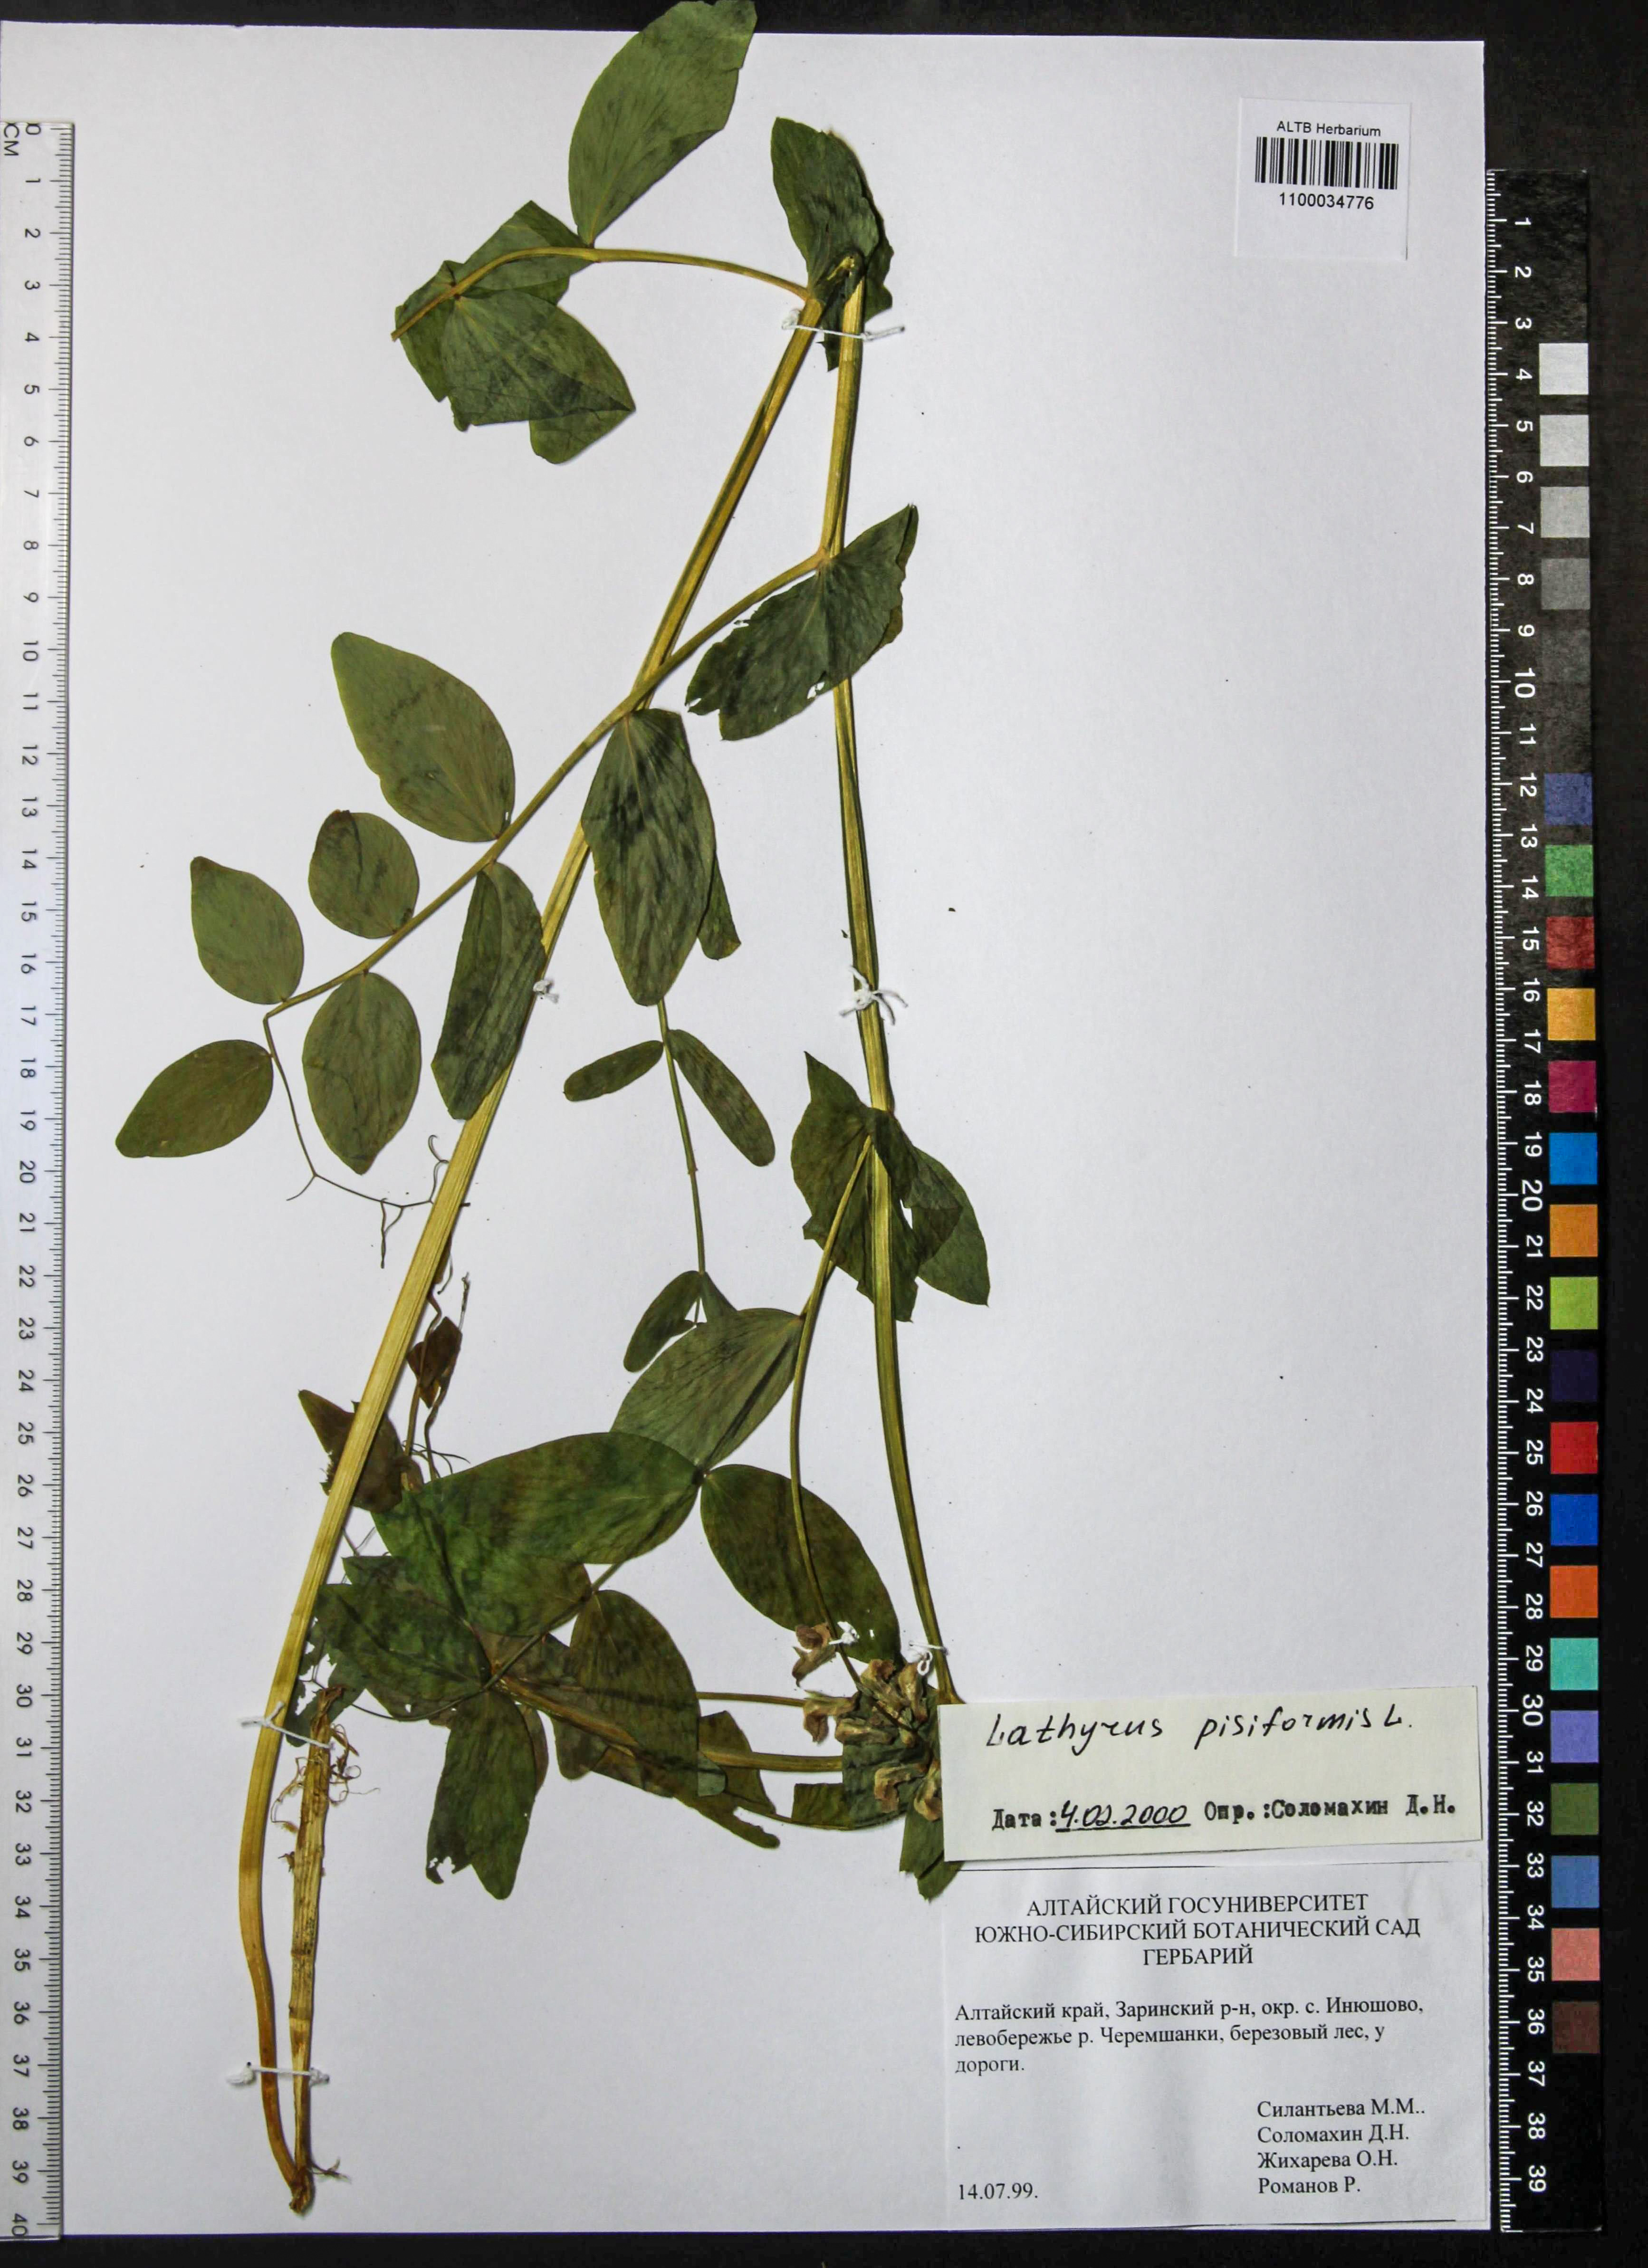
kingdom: Plantae
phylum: Tracheophyta
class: Magnoliopsida
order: Fabales
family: Fabaceae
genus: Lathyrus
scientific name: Lathyrus pisiformis
